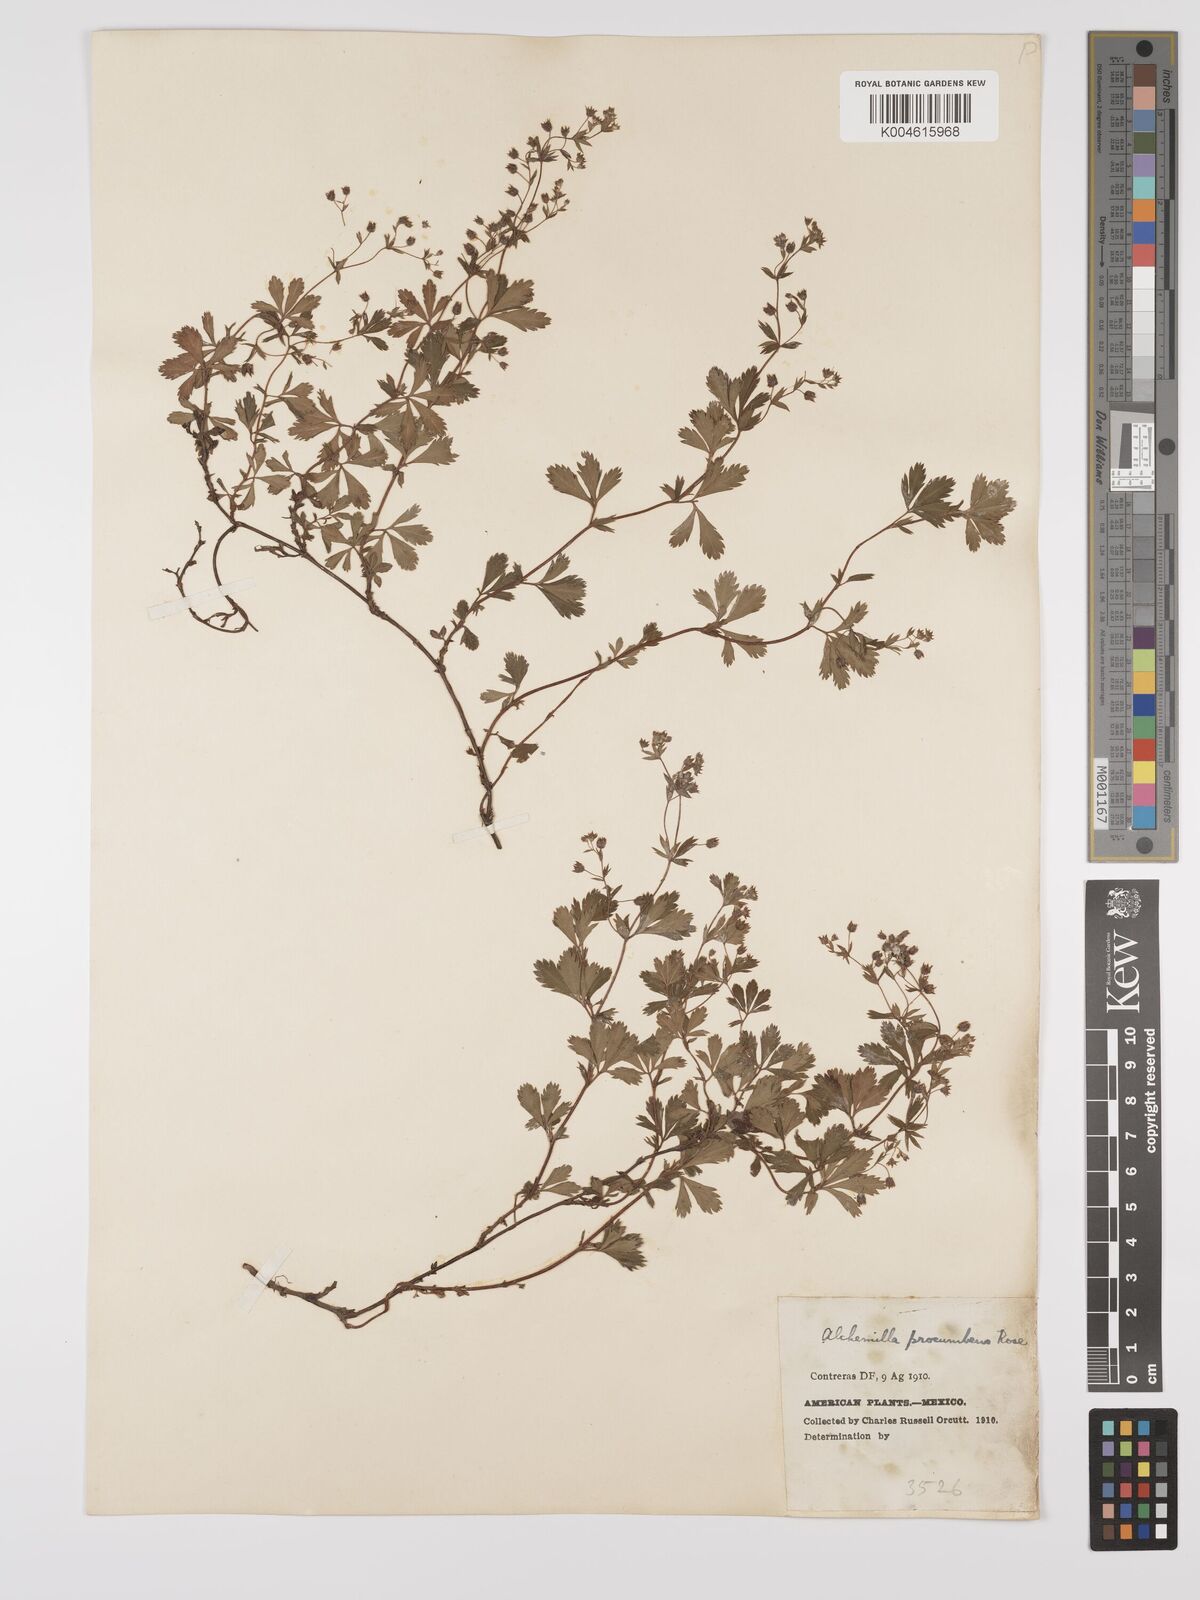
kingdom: Plantae
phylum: Tracheophyta
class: Magnoliopsida
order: Rosales
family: Rosaceae
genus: Lachemilla
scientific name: Lachemilla procumbens
